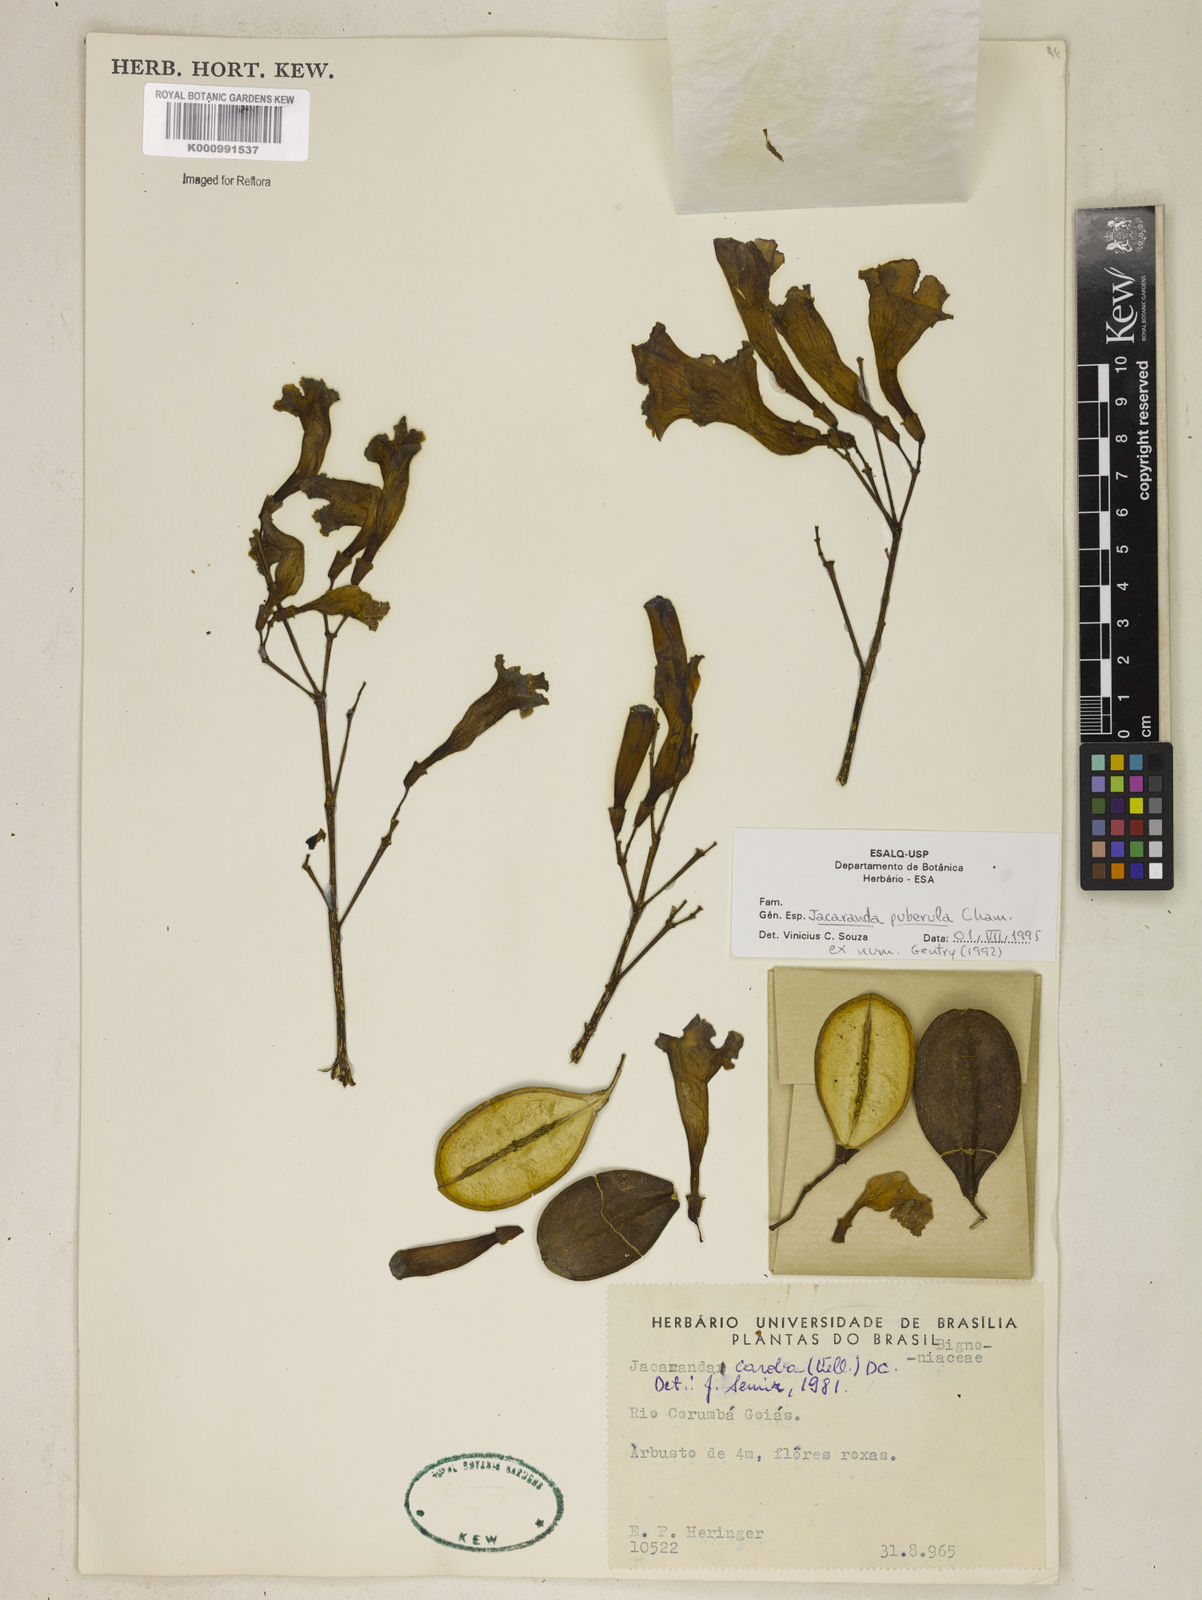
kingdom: Plantae
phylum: Tracheophyta
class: Magnoliopsida
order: Lamiales
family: Bignoniaceae
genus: Jacaranda
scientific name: Jacaranda puberula
